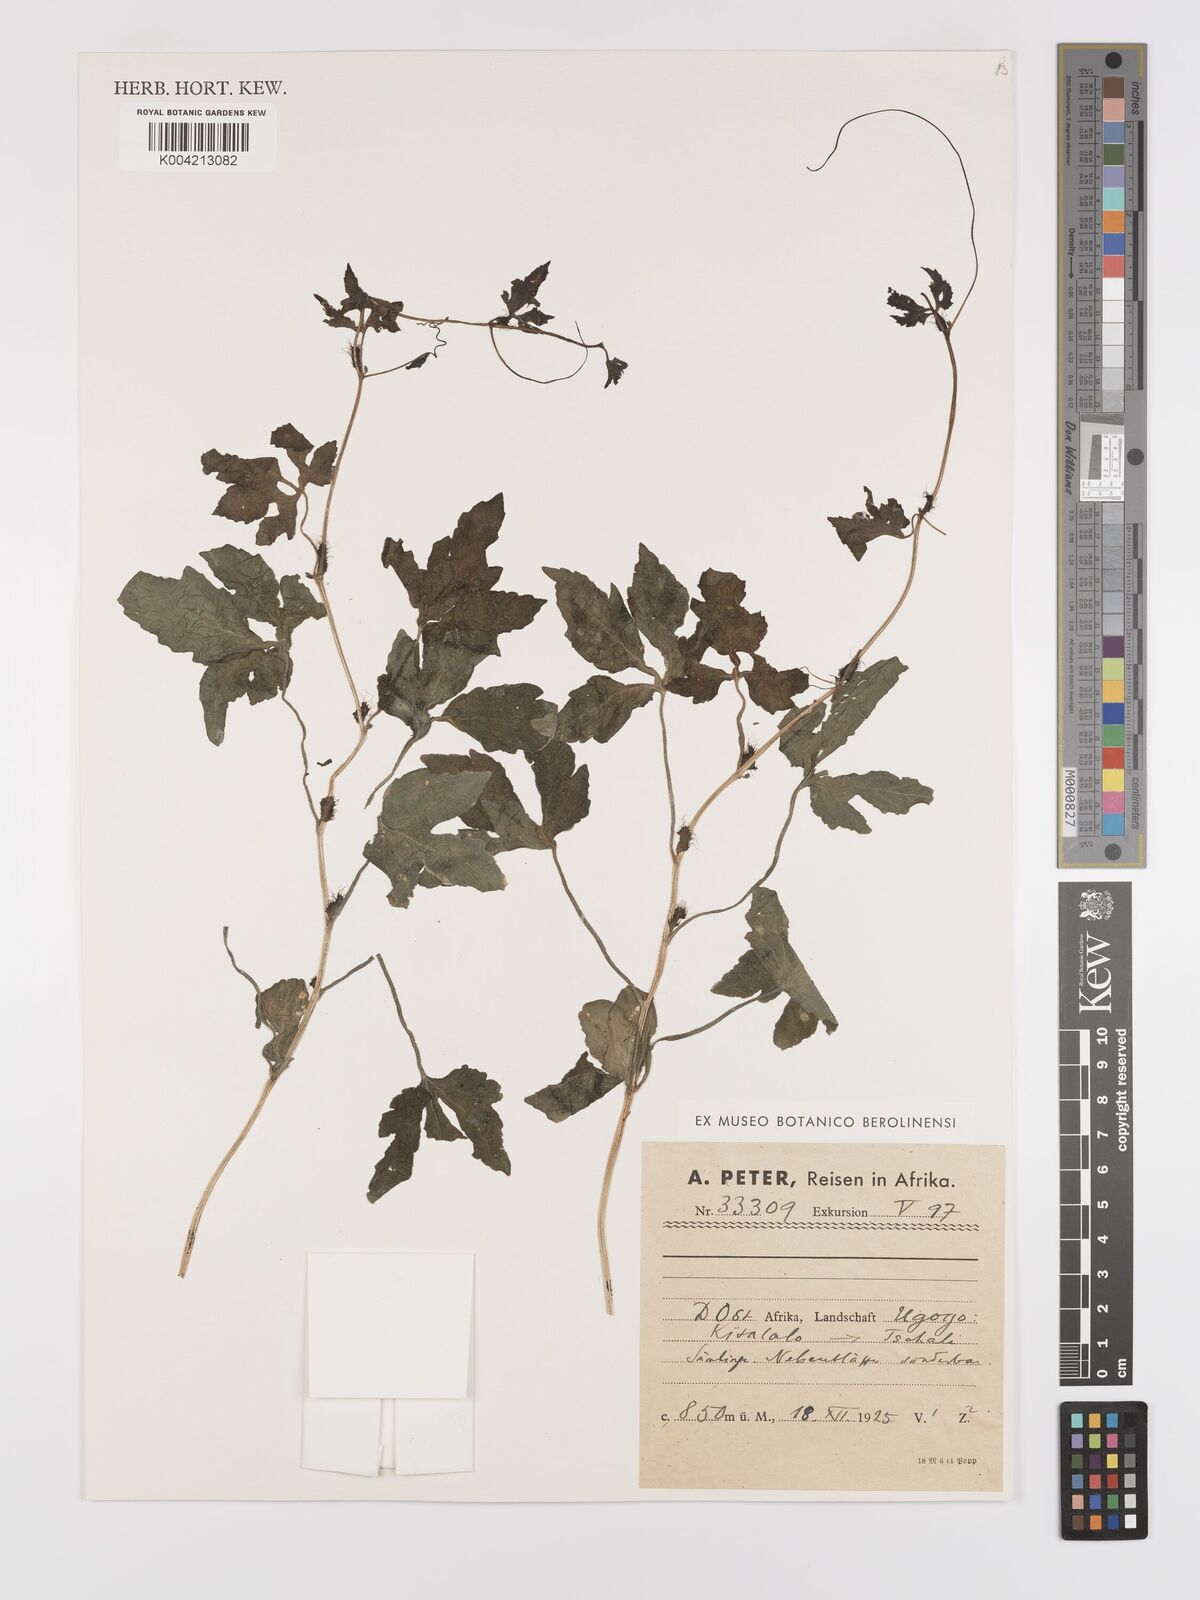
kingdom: Plantae
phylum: Tracheophyta
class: Magnoliopsida
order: Cucurbitales
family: Cucurbitaceae
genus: Blastania
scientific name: Blastania
